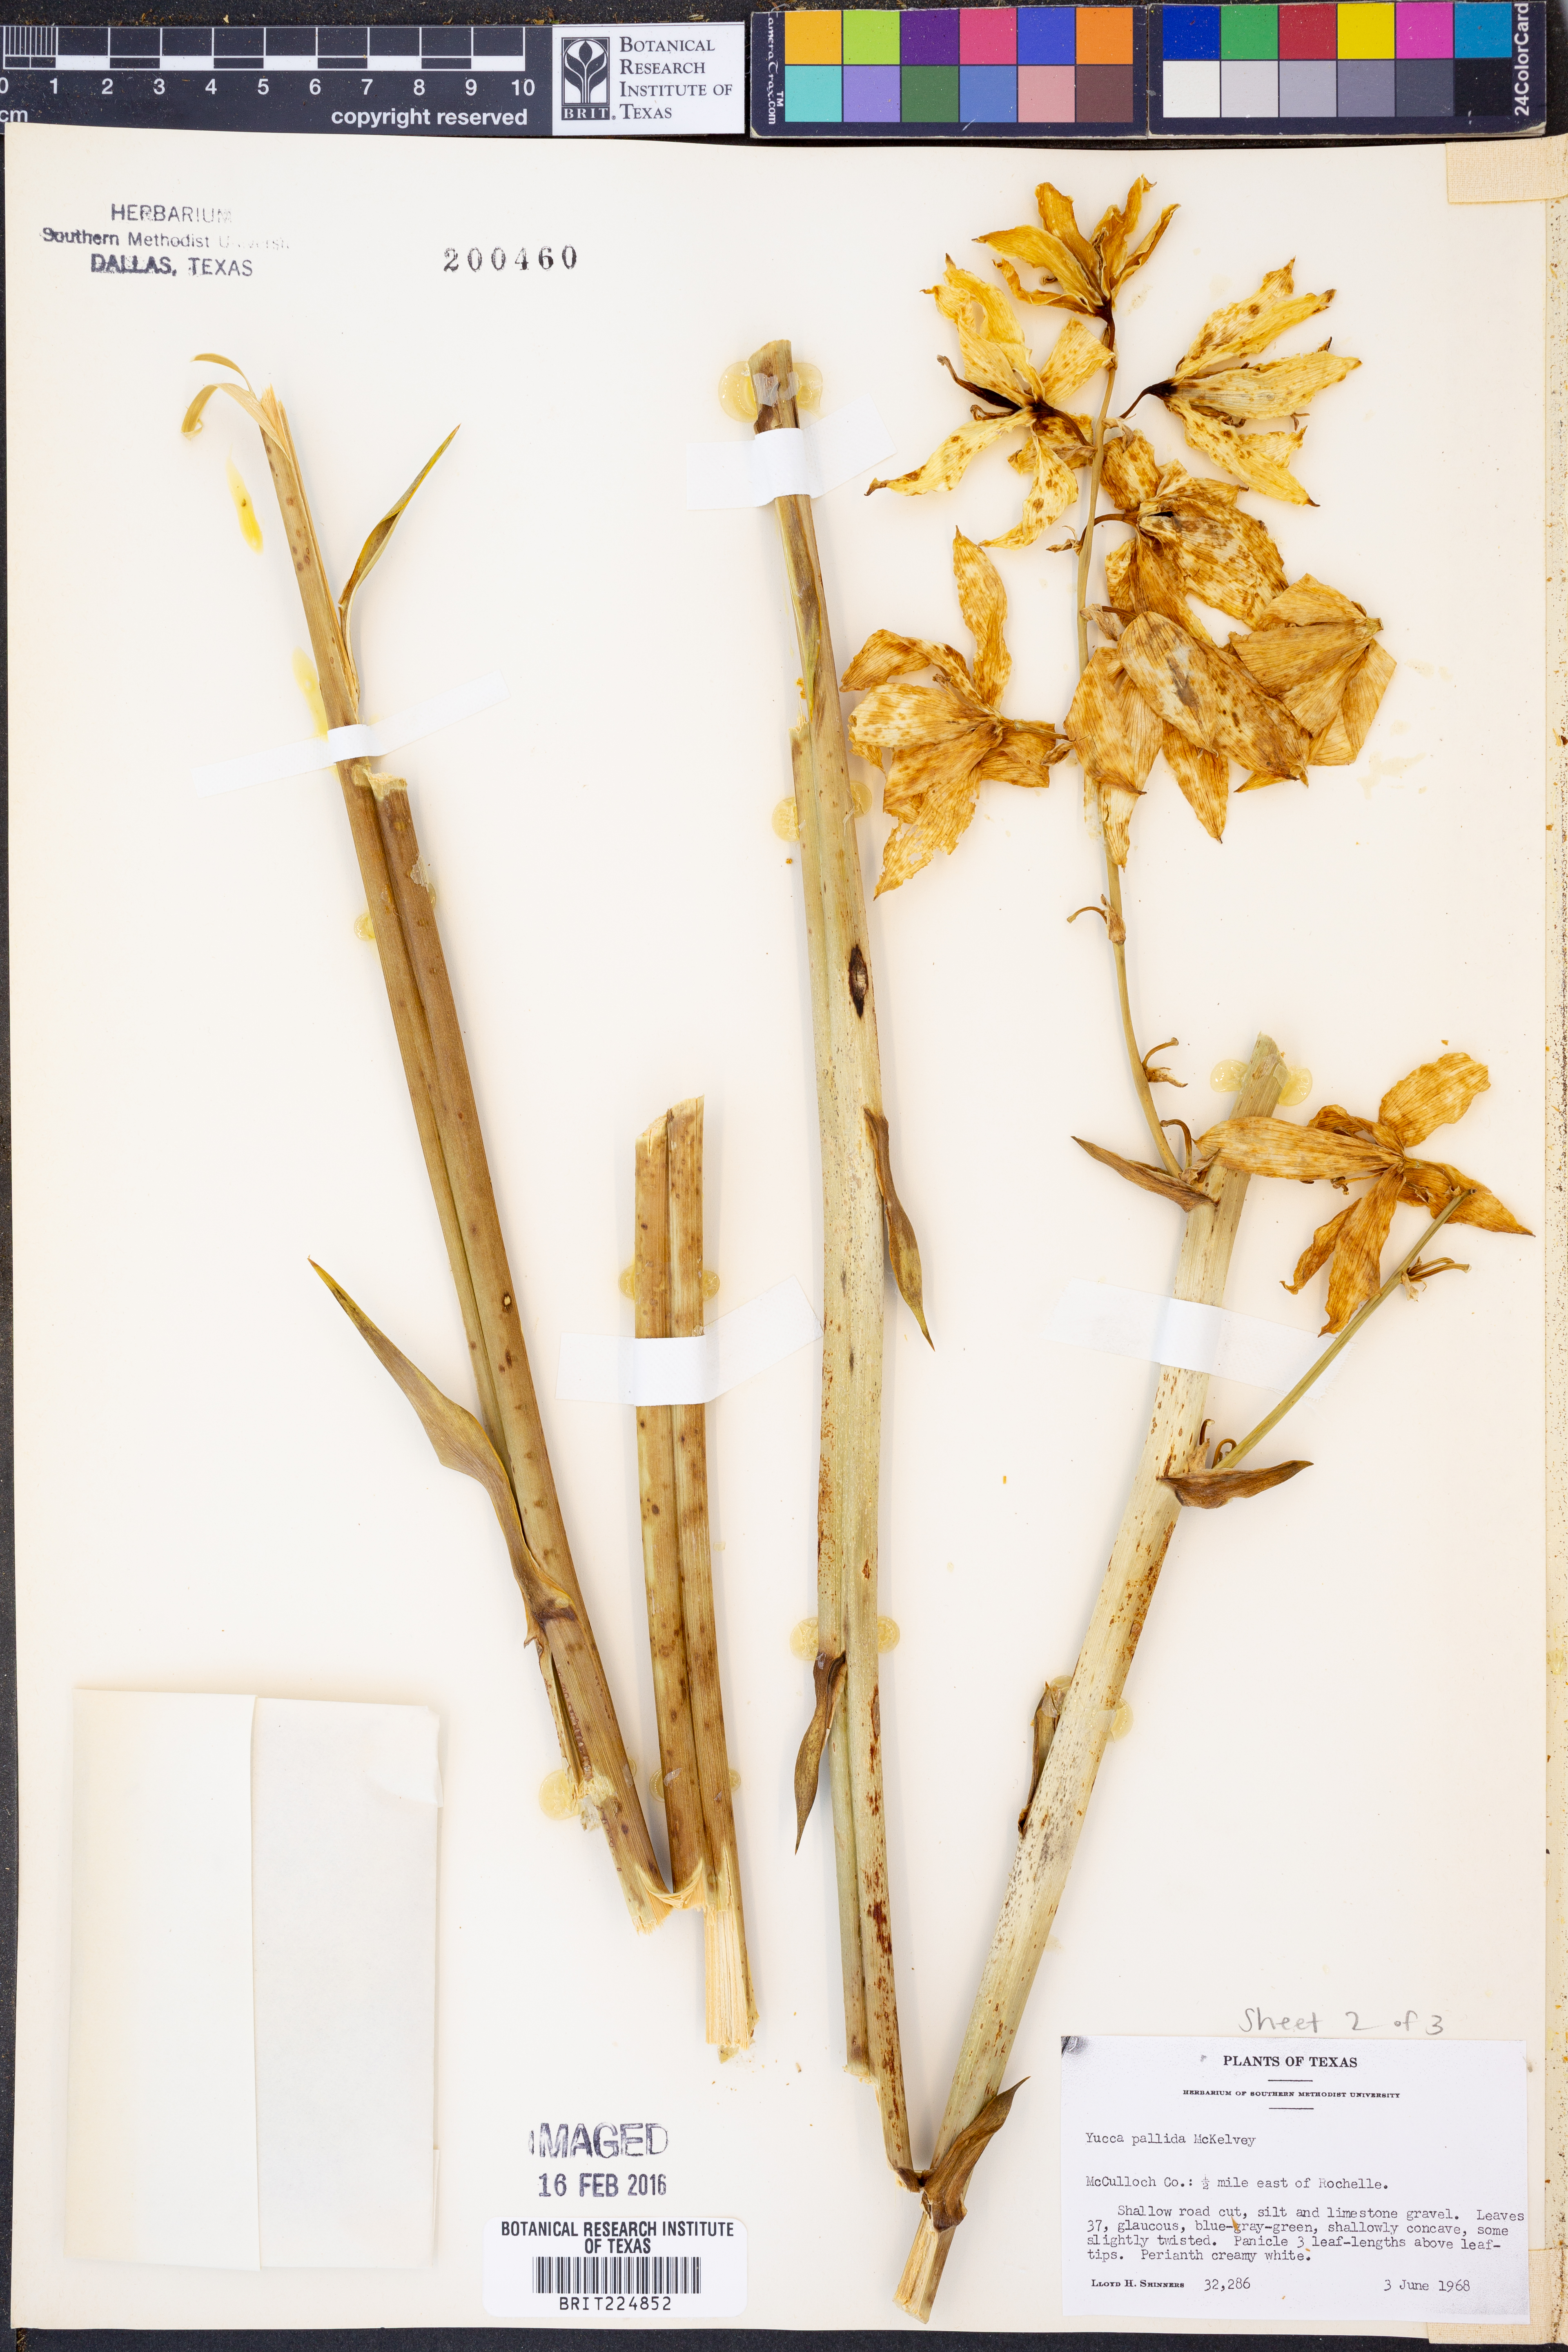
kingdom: Plantae
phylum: Tracheophyta
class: Liliopsida
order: Asparagales
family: Asparagaceae
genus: Yucca
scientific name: Yucca pallida
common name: Pale leaf yucca
